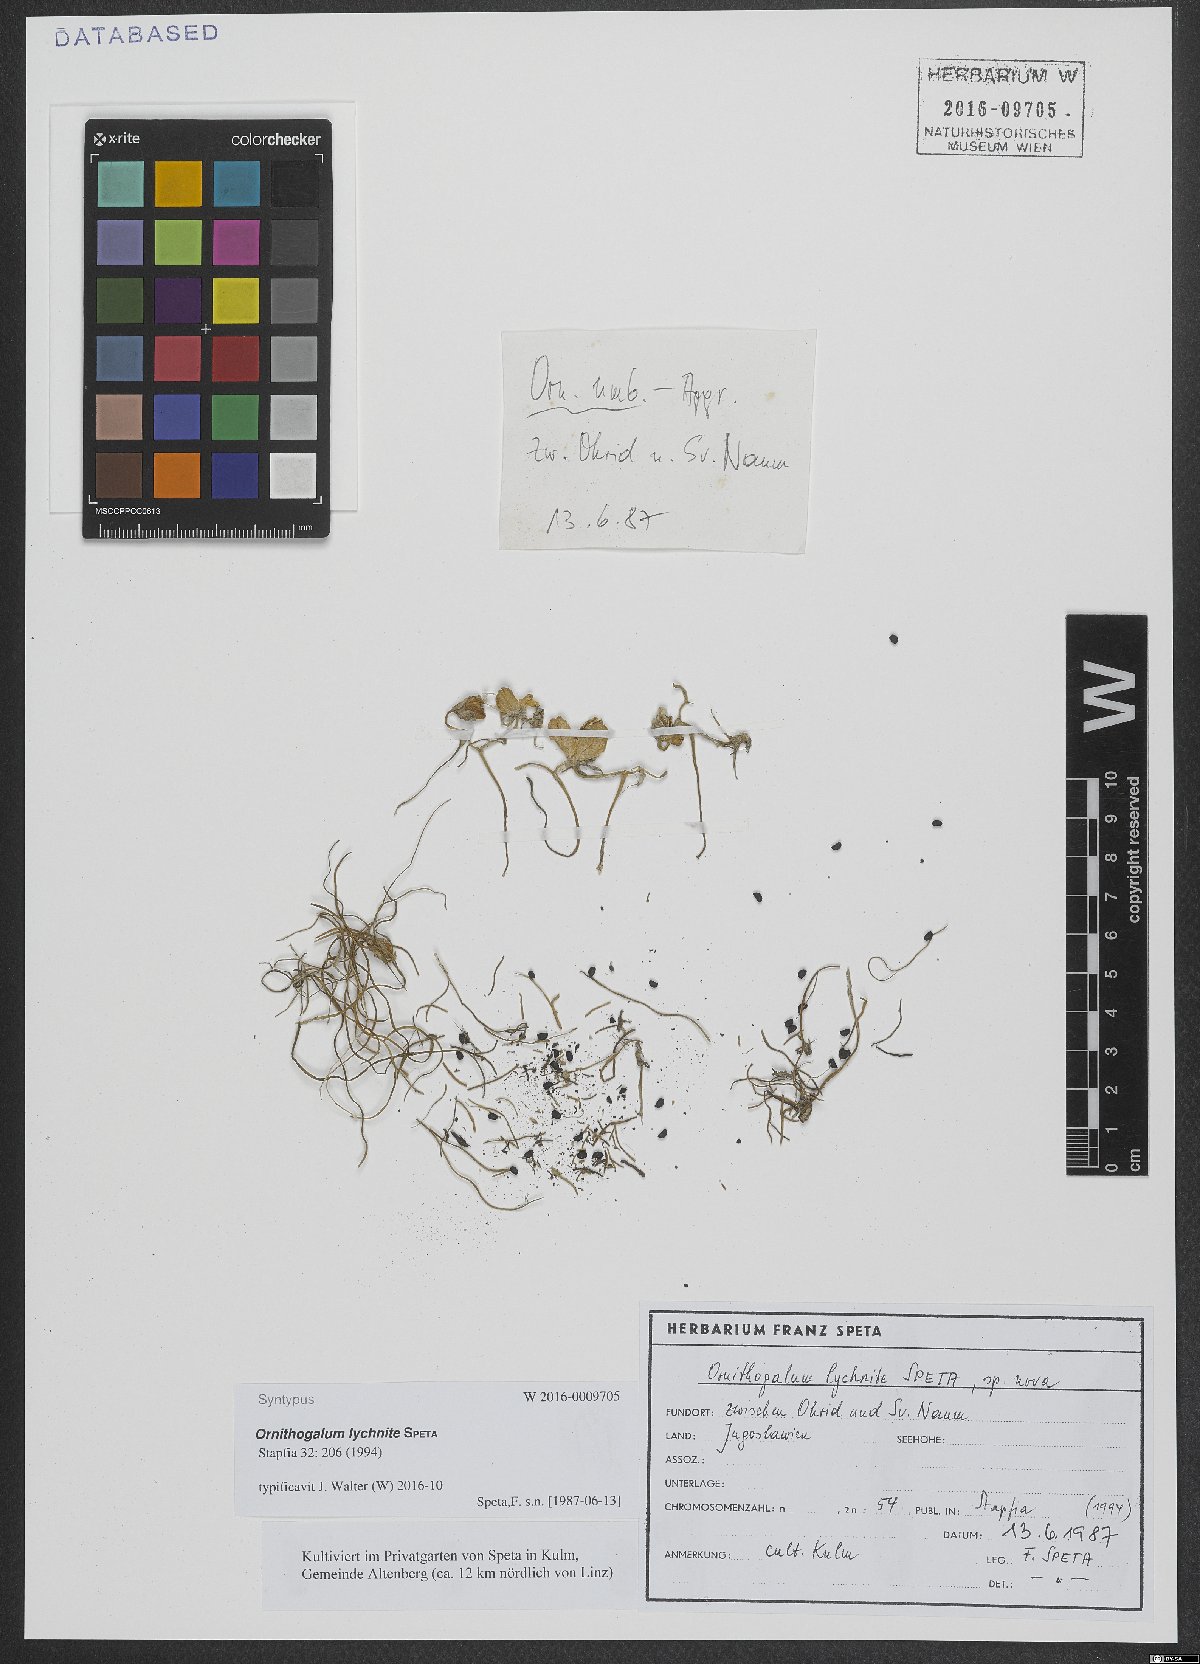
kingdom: Plantae
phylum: Tracheophyta
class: Liliopsida
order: Asparagales
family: Asparagaceae
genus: Ornithogalum
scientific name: Ornithogalum lychnite
